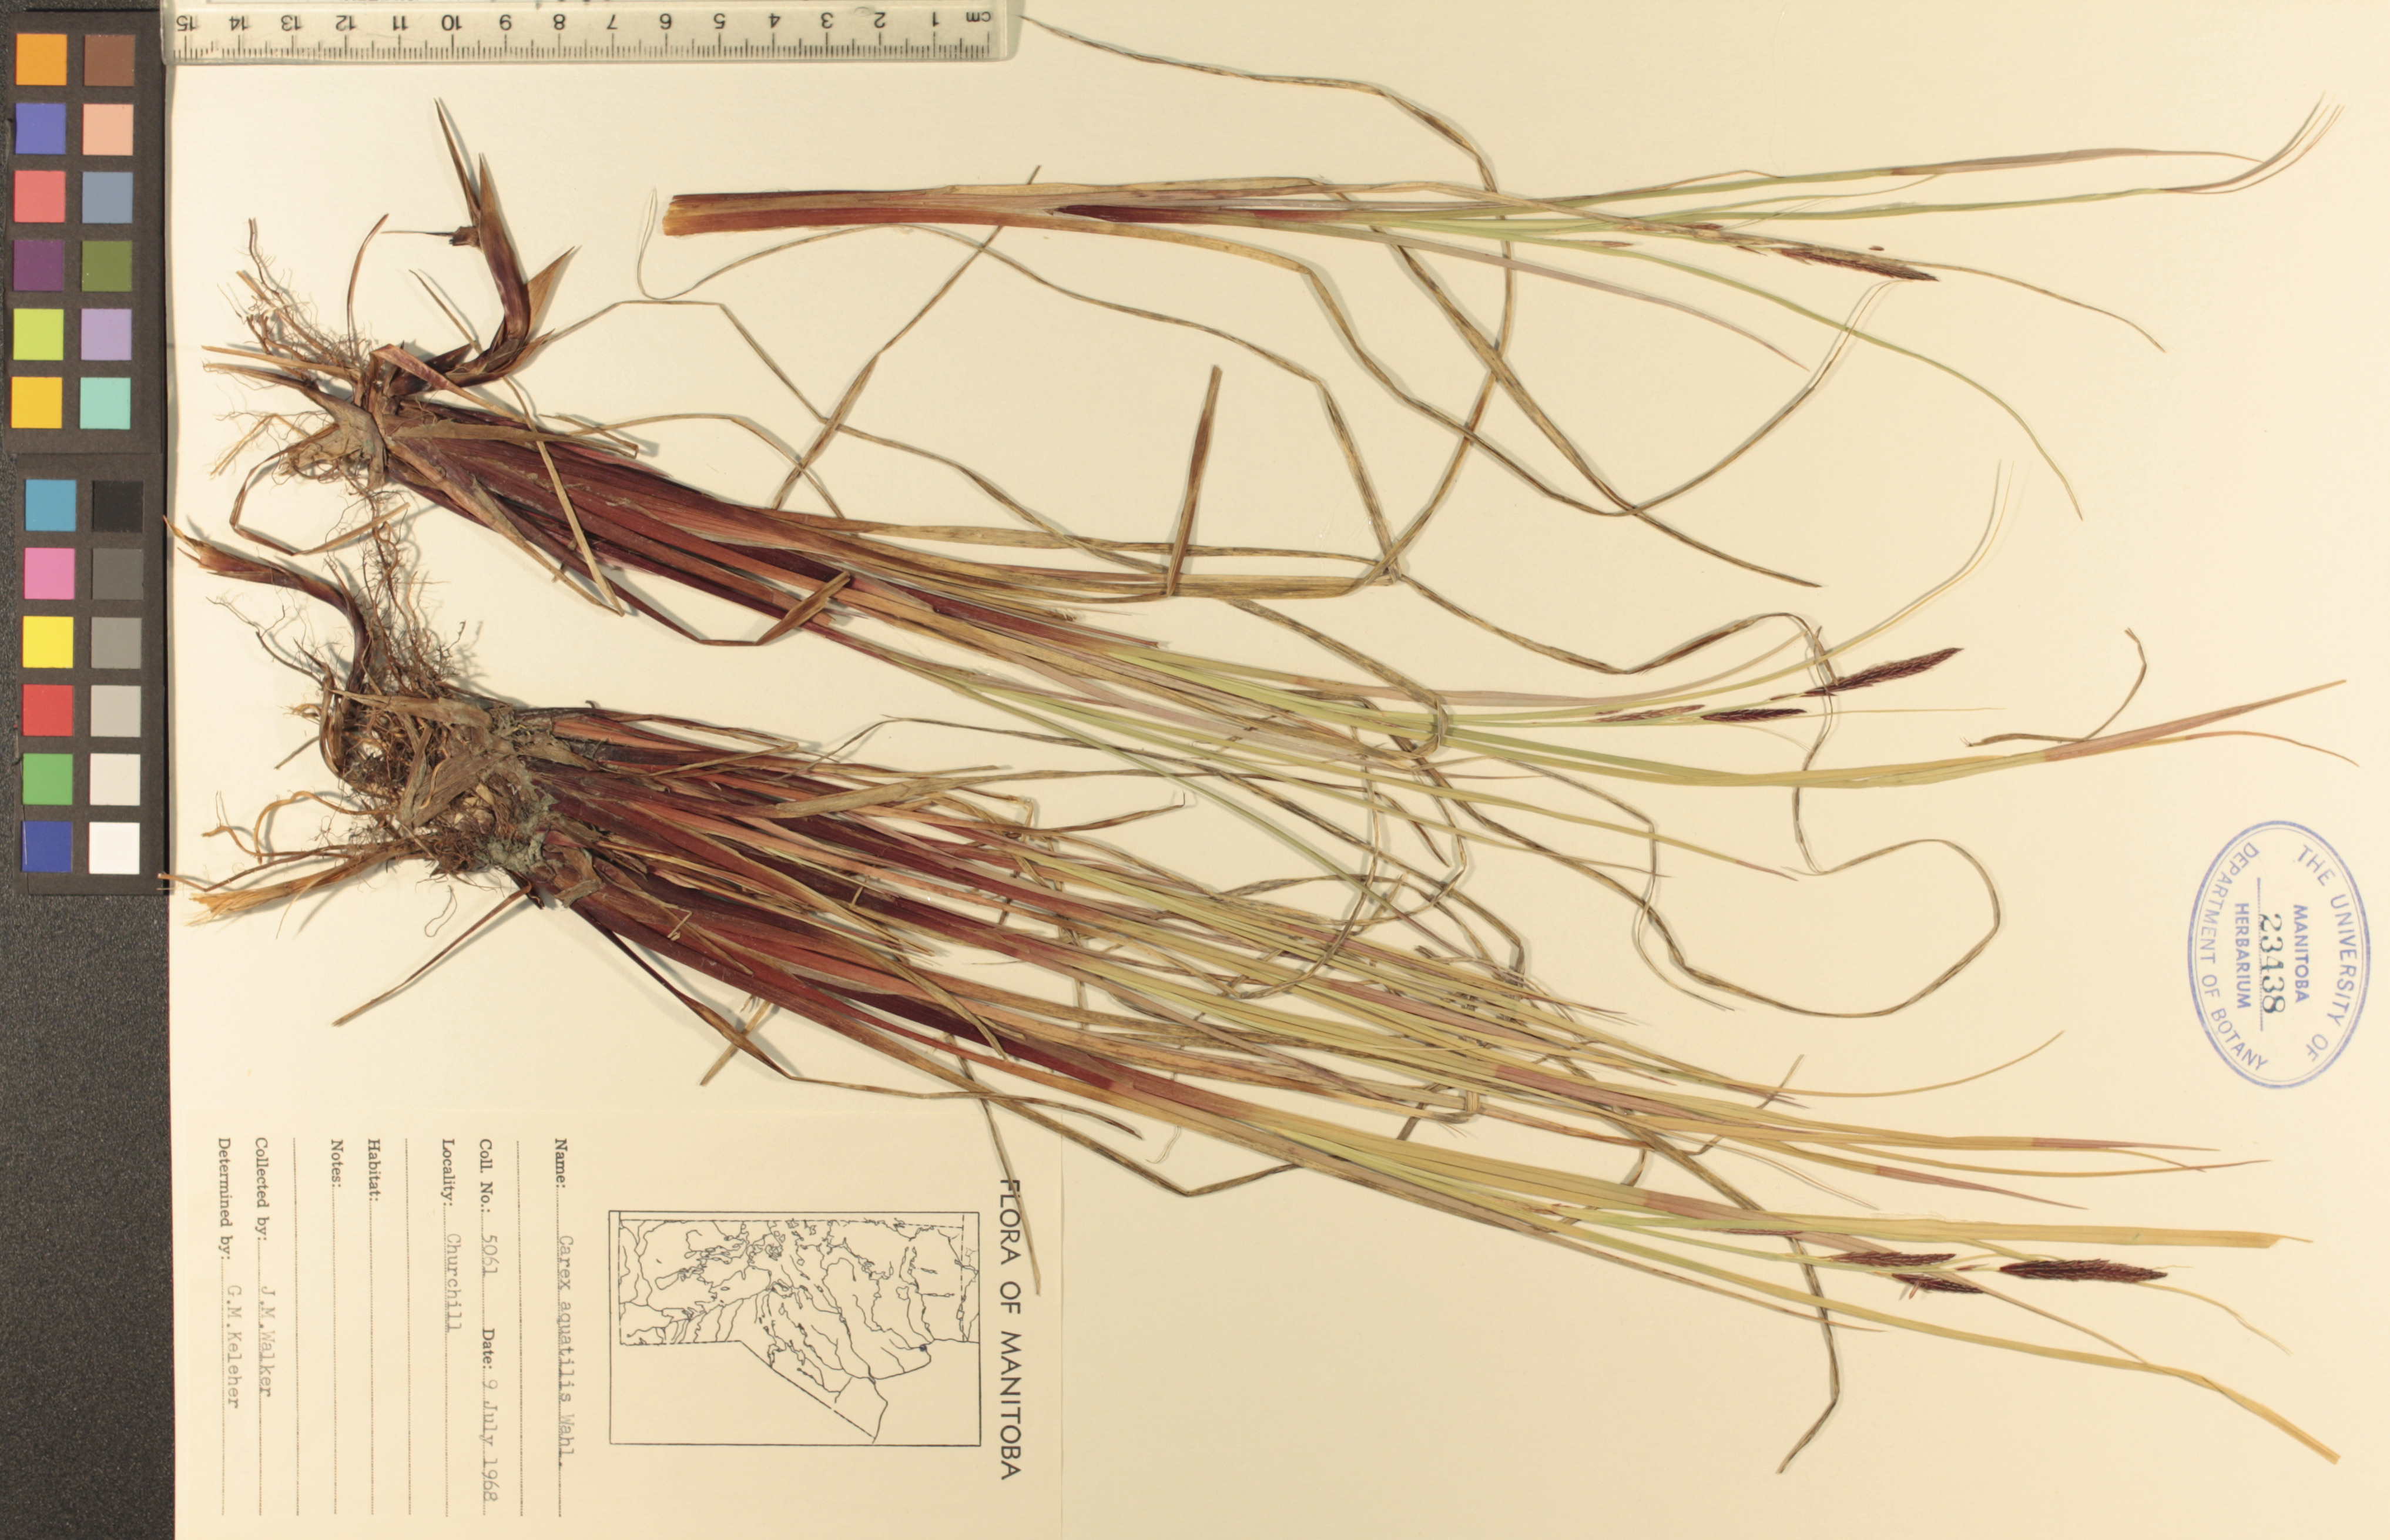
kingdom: Plantae
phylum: Tracheophyta
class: Liliopsida
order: Poales
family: Cyperaceae
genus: Carex
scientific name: Carex aquatilis
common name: Water sedge
